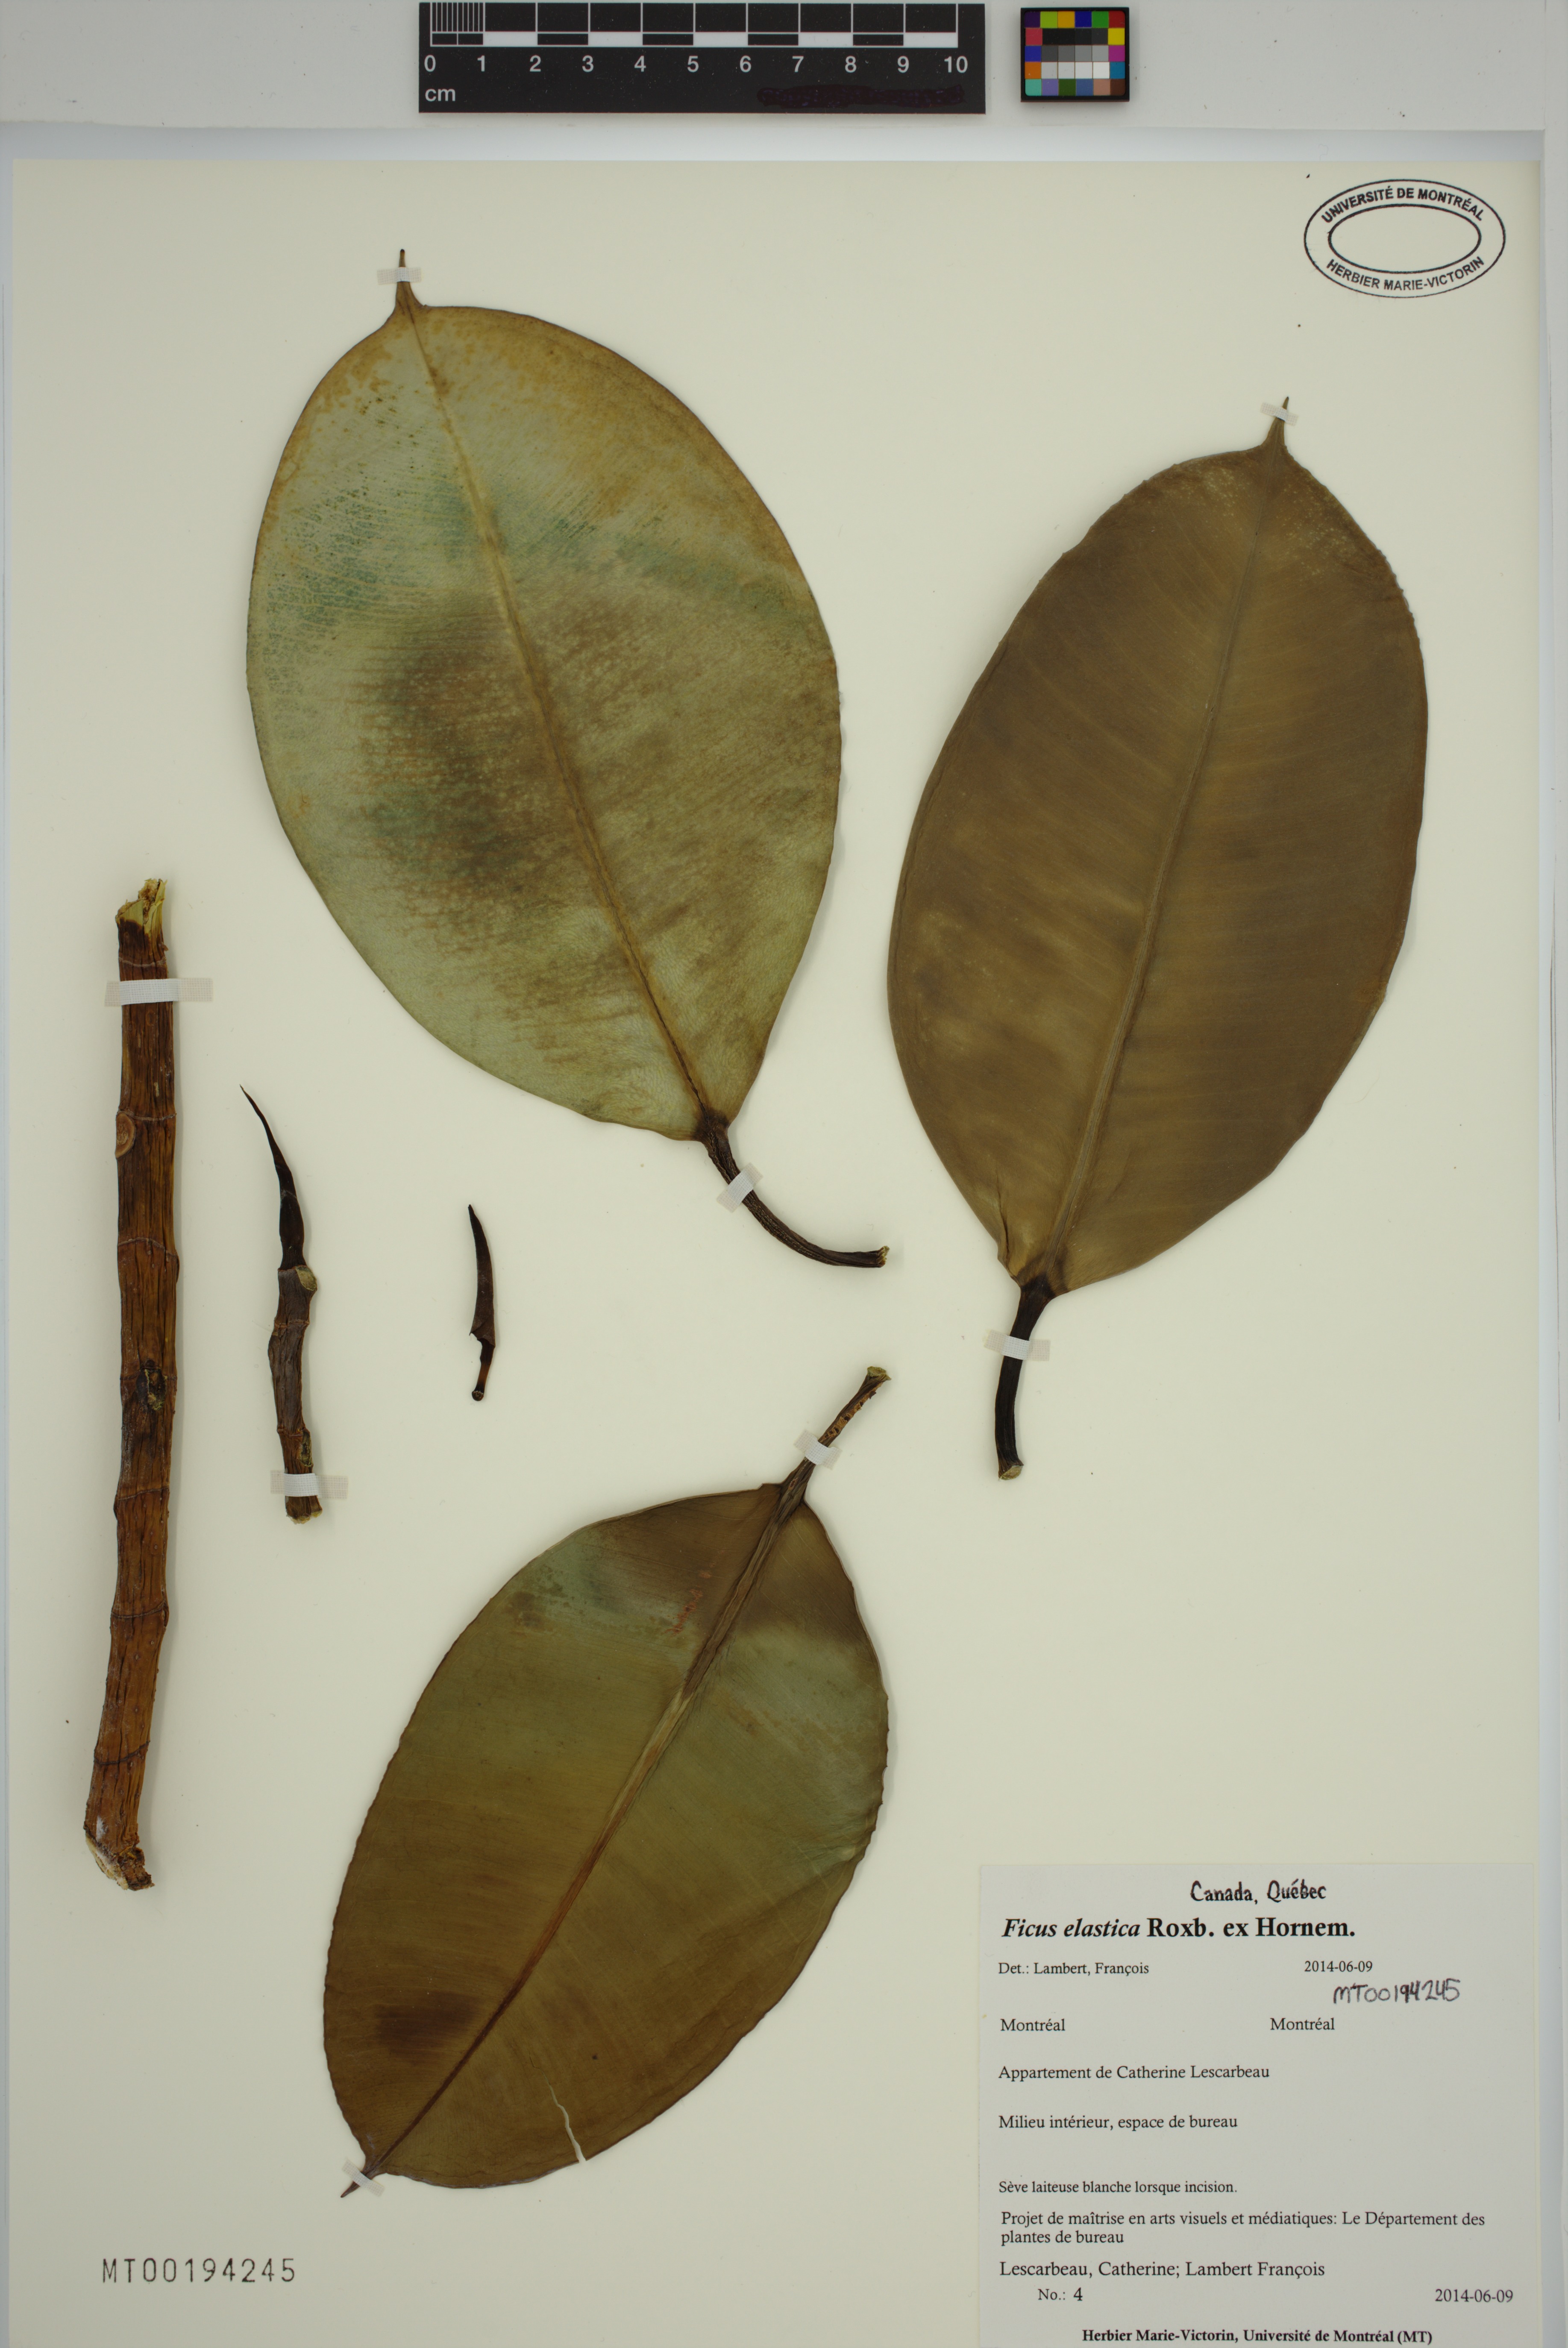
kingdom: Plantae
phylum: Tracheophyta
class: Magnoliopsida
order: Rosales
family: Moraceae
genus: Ficus
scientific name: Ficus elastica
